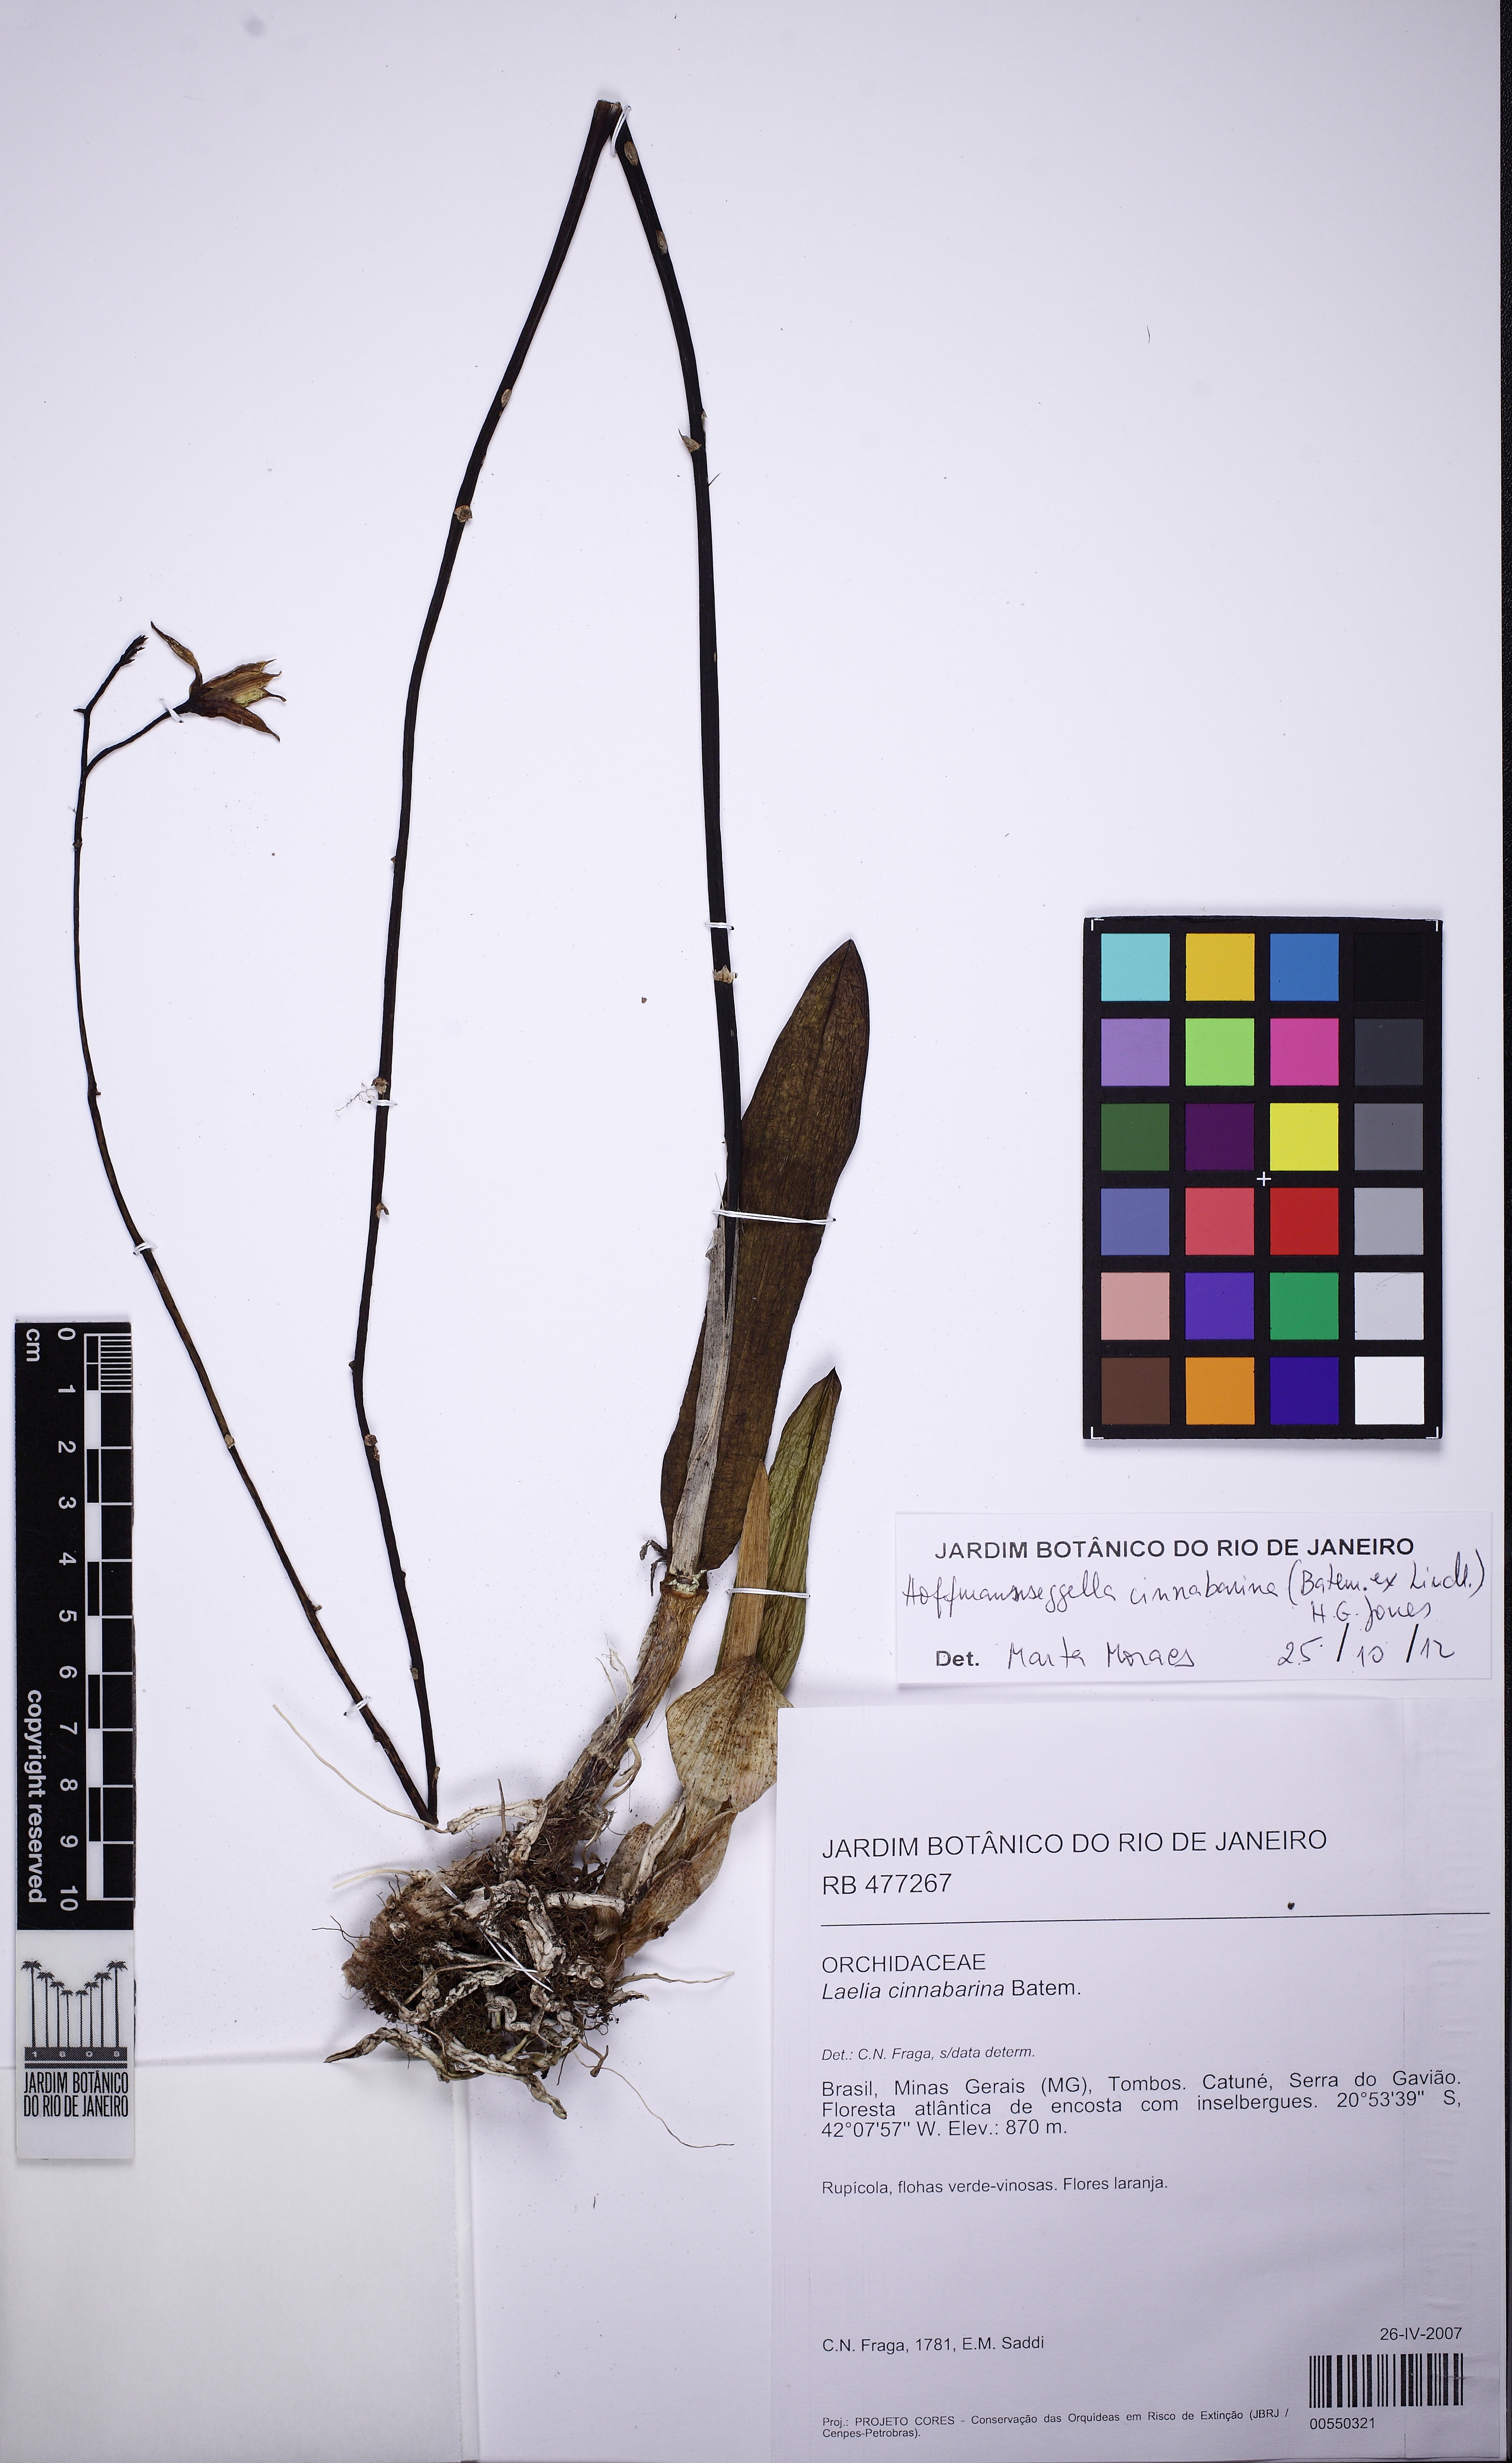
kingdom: Plantae
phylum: Tracheophyta
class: Liliopsida
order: Asparagales
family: Orchidaceae
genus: Cattleya
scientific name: Cattleya cinnabarina
